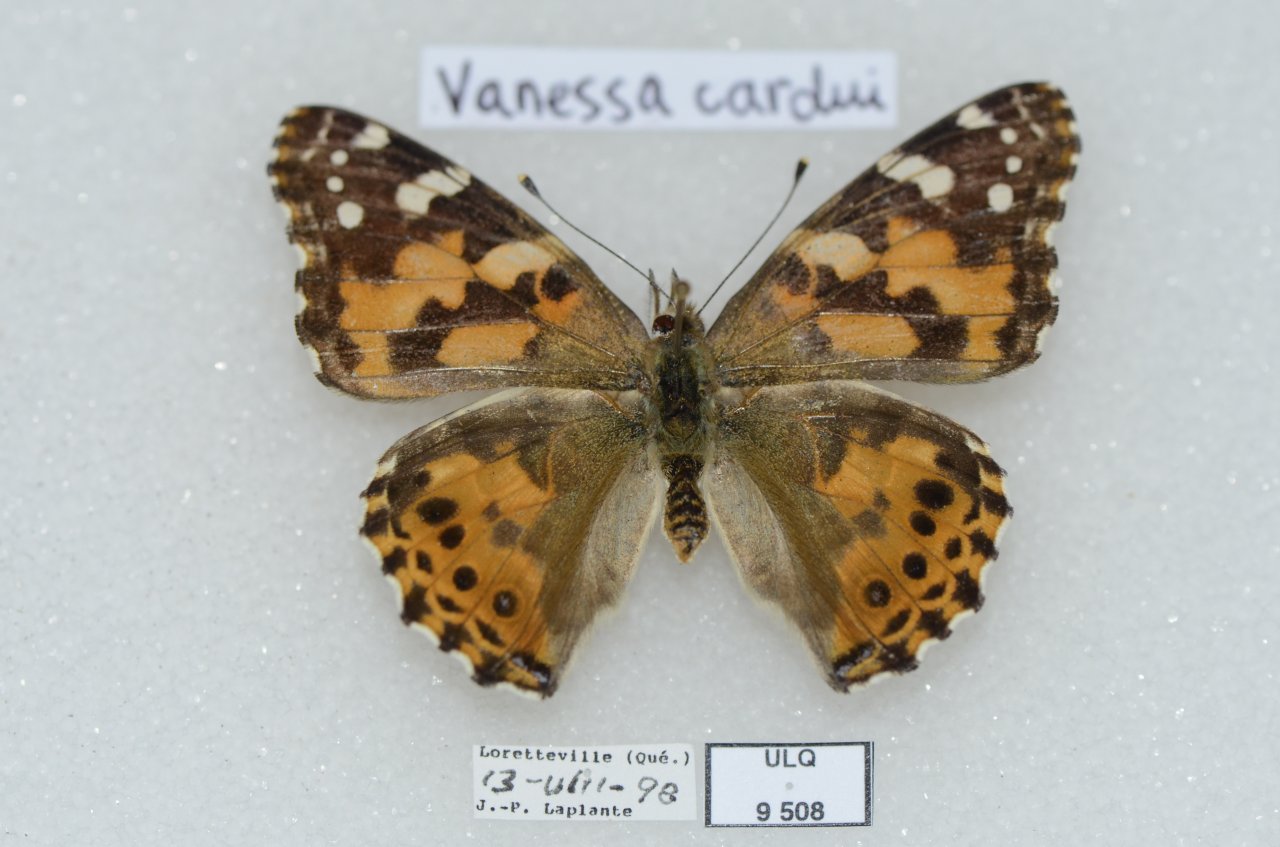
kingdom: Animalia
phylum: Arthropoda
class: Insecta
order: Lepidoptera
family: Nymphalidae
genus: Vanessa
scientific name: Vanessa cardui
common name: Painted Lady
